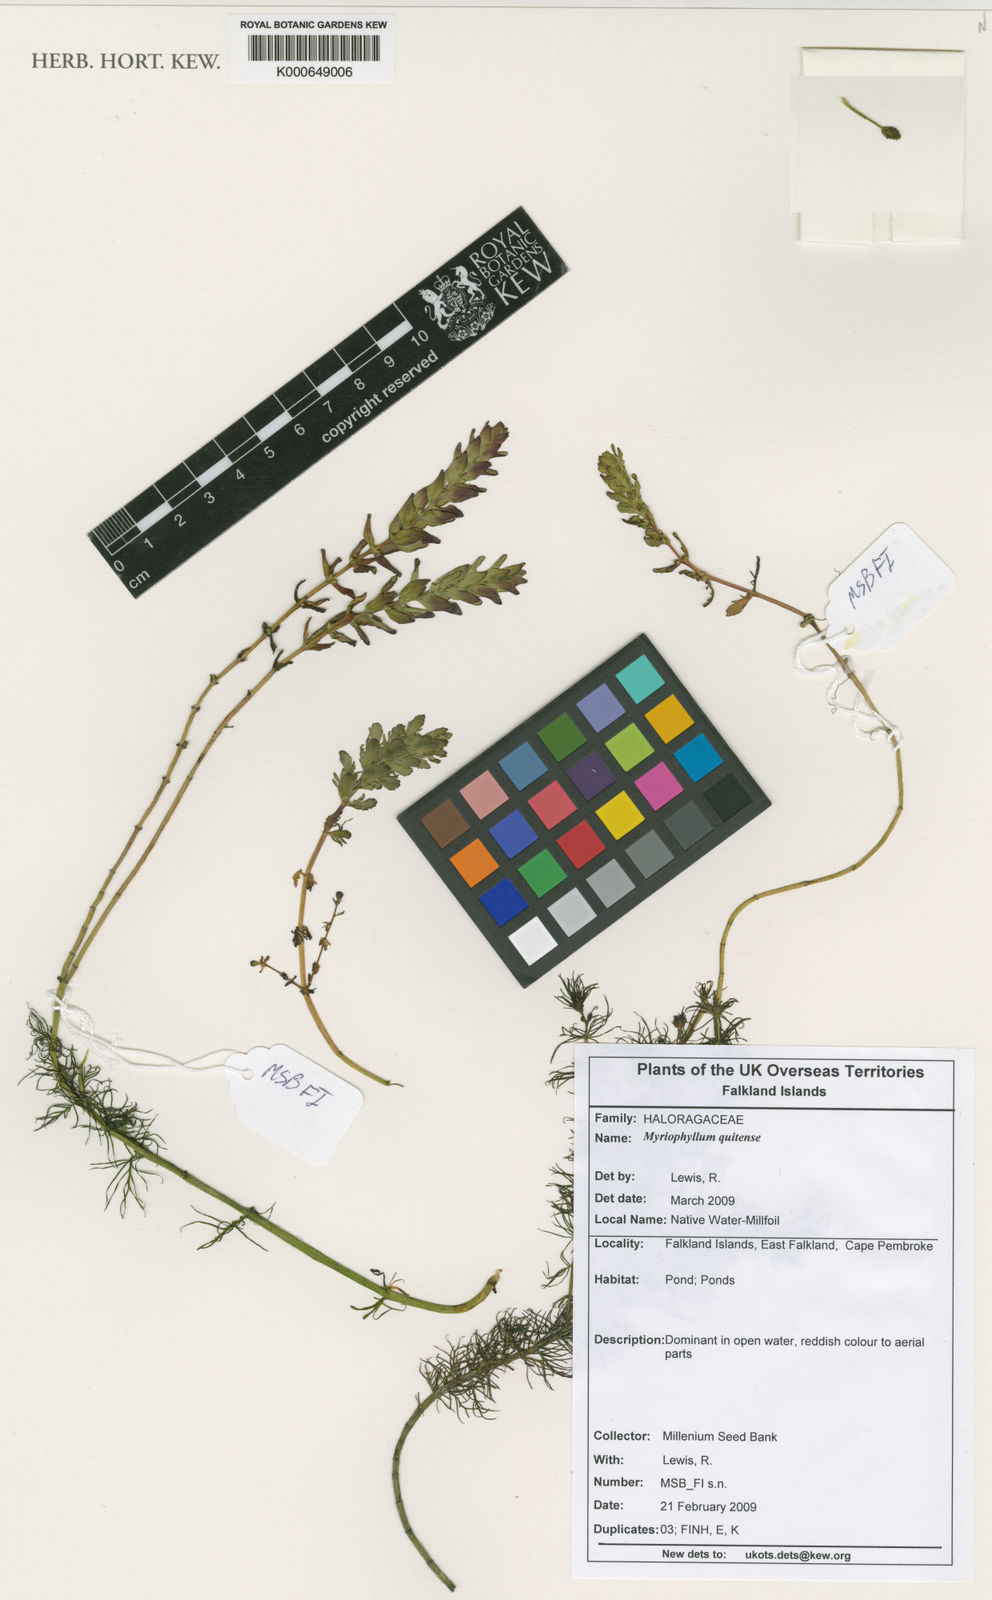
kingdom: Plantae
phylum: Tracheophyta
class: Magnoliopsida
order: Saxifragales
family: Haloragaceae
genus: Myriophyllum
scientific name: Myriophyllum quitense
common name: Andean water milfoil
